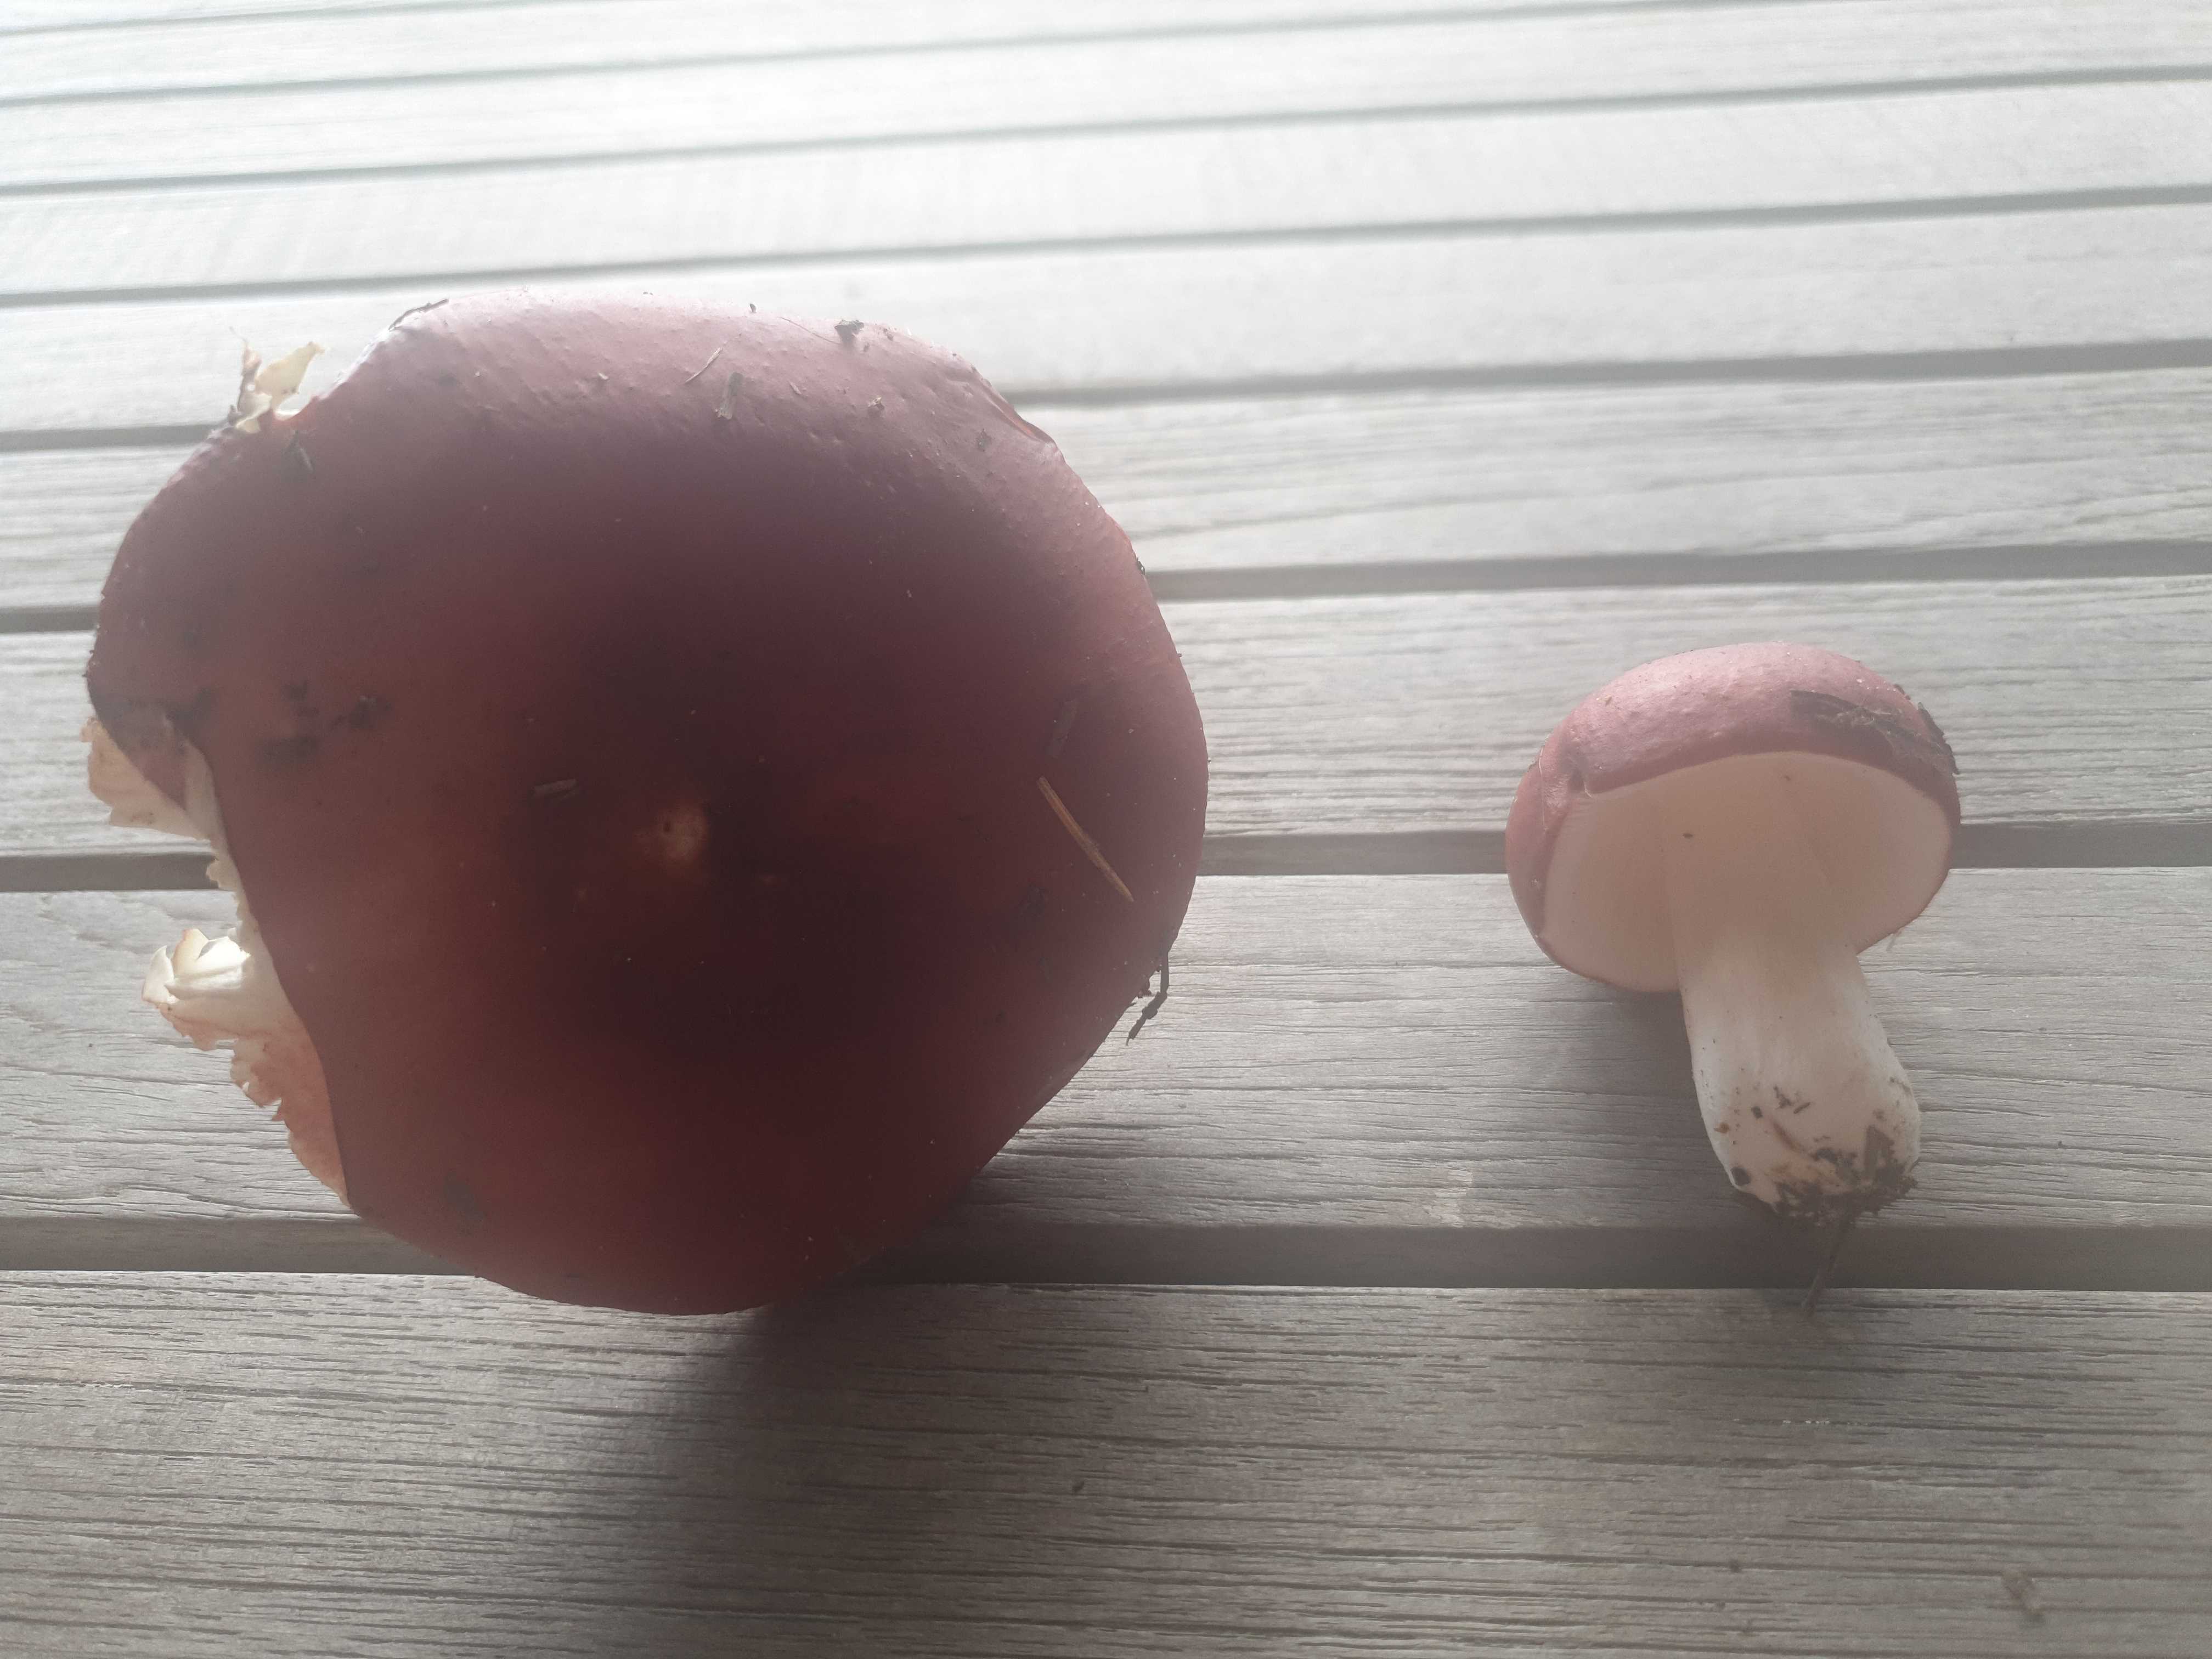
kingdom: Fungi
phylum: Basidiomycota
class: Agaricomycetes
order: Russulales
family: Russulaceae
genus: Russula
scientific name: Russula
